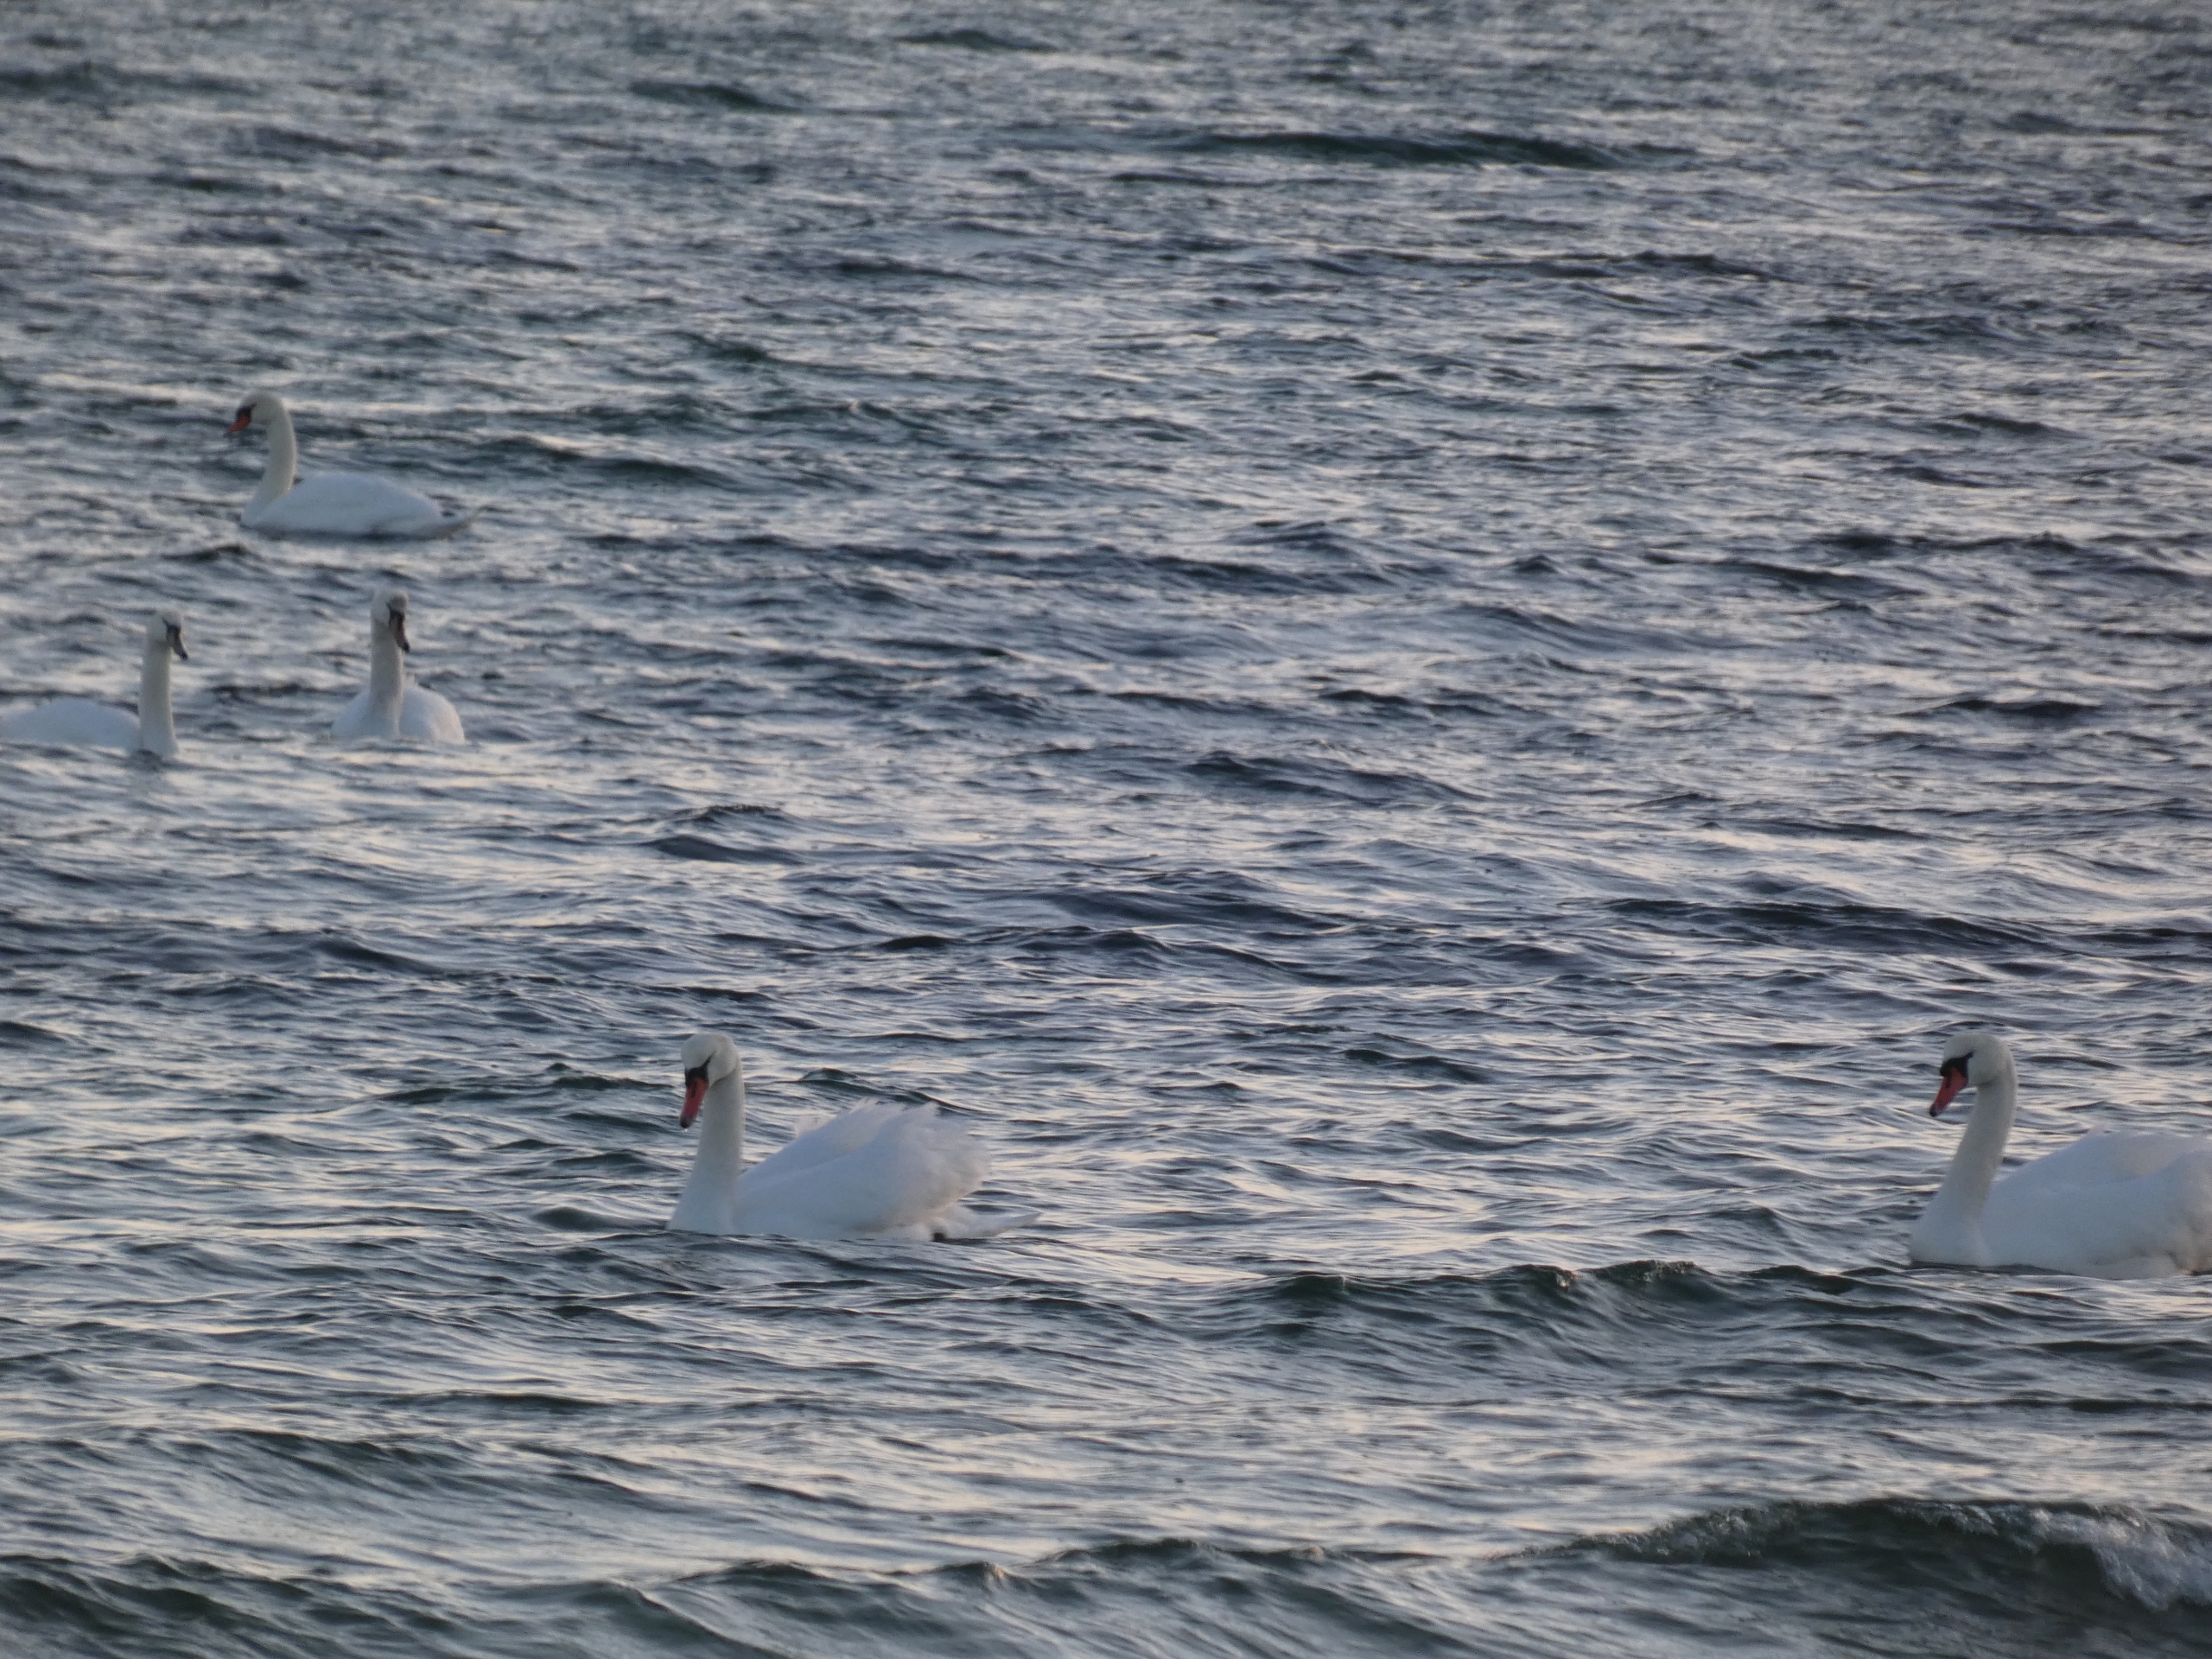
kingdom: Animalia
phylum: Chordata
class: Aves
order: Anseriformes
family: Anatidae
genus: Cygnus
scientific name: Cygnus olor
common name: Knopsvane
